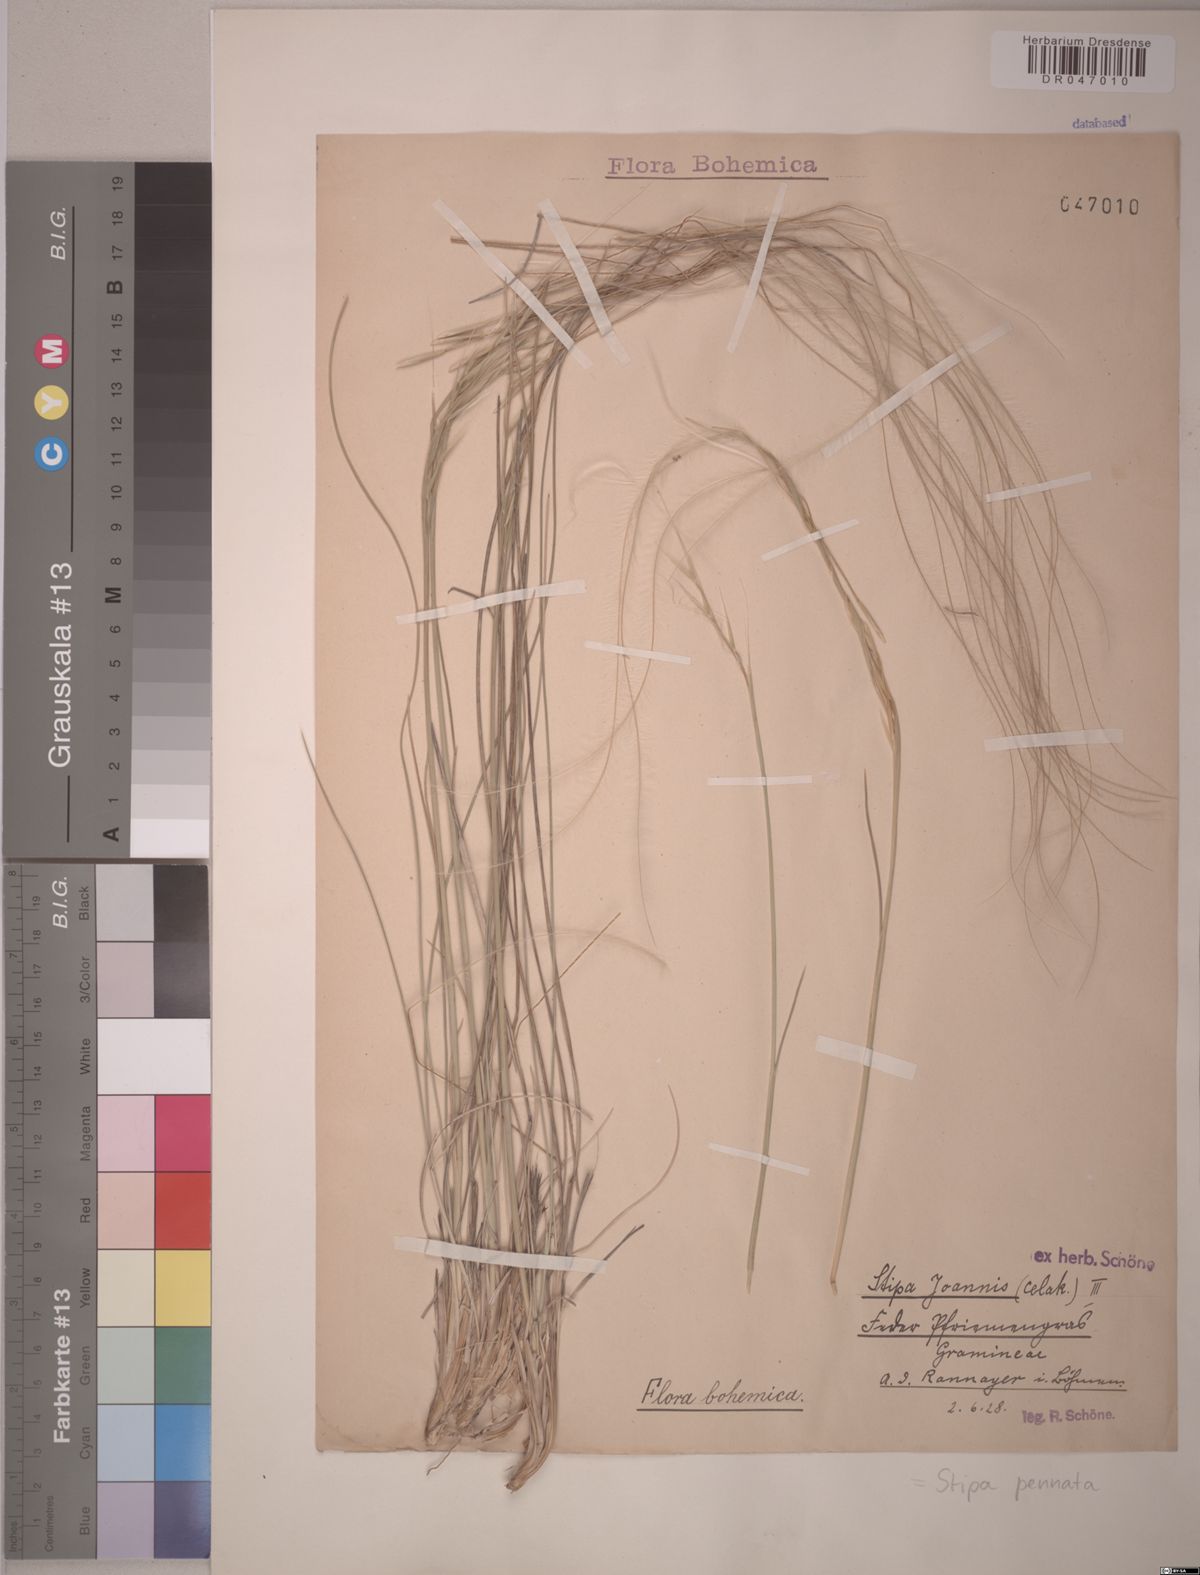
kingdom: Plantae
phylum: Tracheophyta
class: Liliopsida
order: Poales
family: Poaceae
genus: Stipa
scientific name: Stipa pennata
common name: European feather grass
